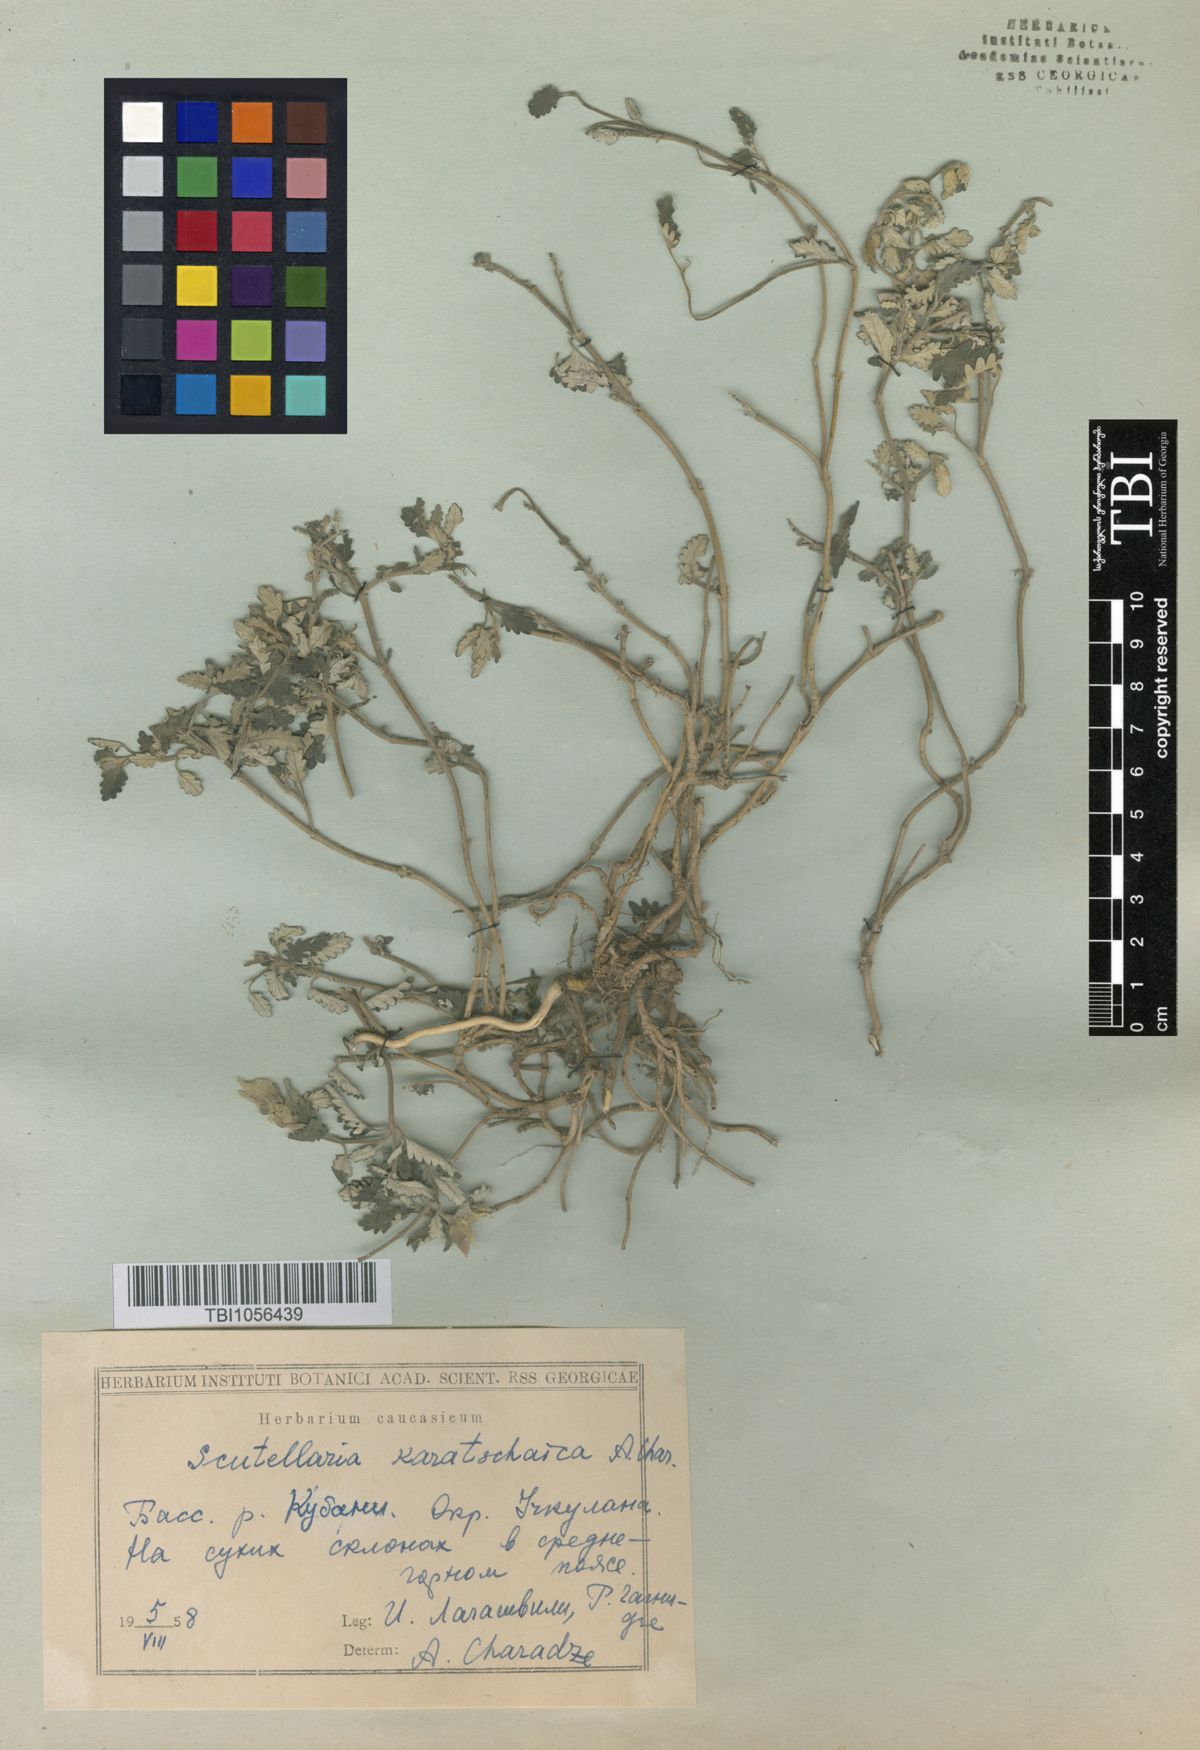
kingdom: Plantae
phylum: Tracheophyta
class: Magnoliopsida
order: Lamiales
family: Lamiaceae
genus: Scutellaria
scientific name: Scutellaria orientalis
